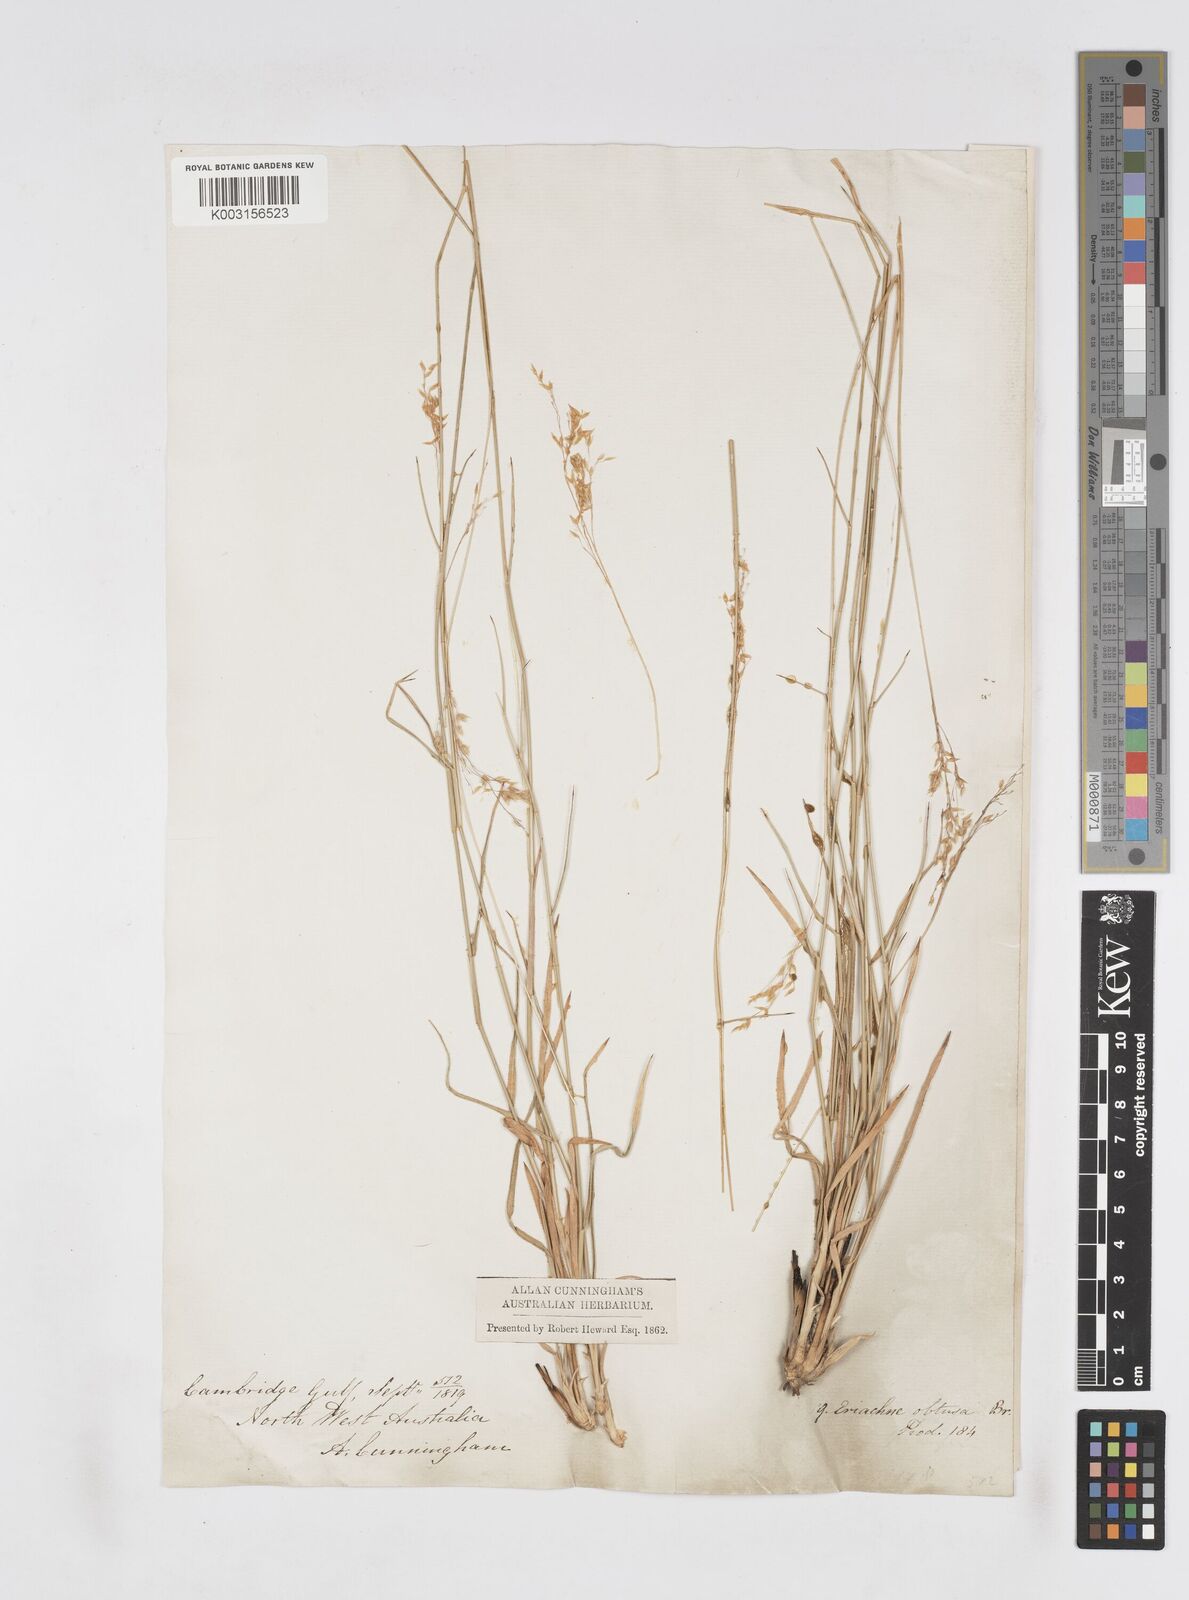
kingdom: Plantae
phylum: Tracheophyta
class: Liliopsida
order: Poales
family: Poaceae
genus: Eriachne
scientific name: Eriachne obtusa
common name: Northern wanderrie grass
